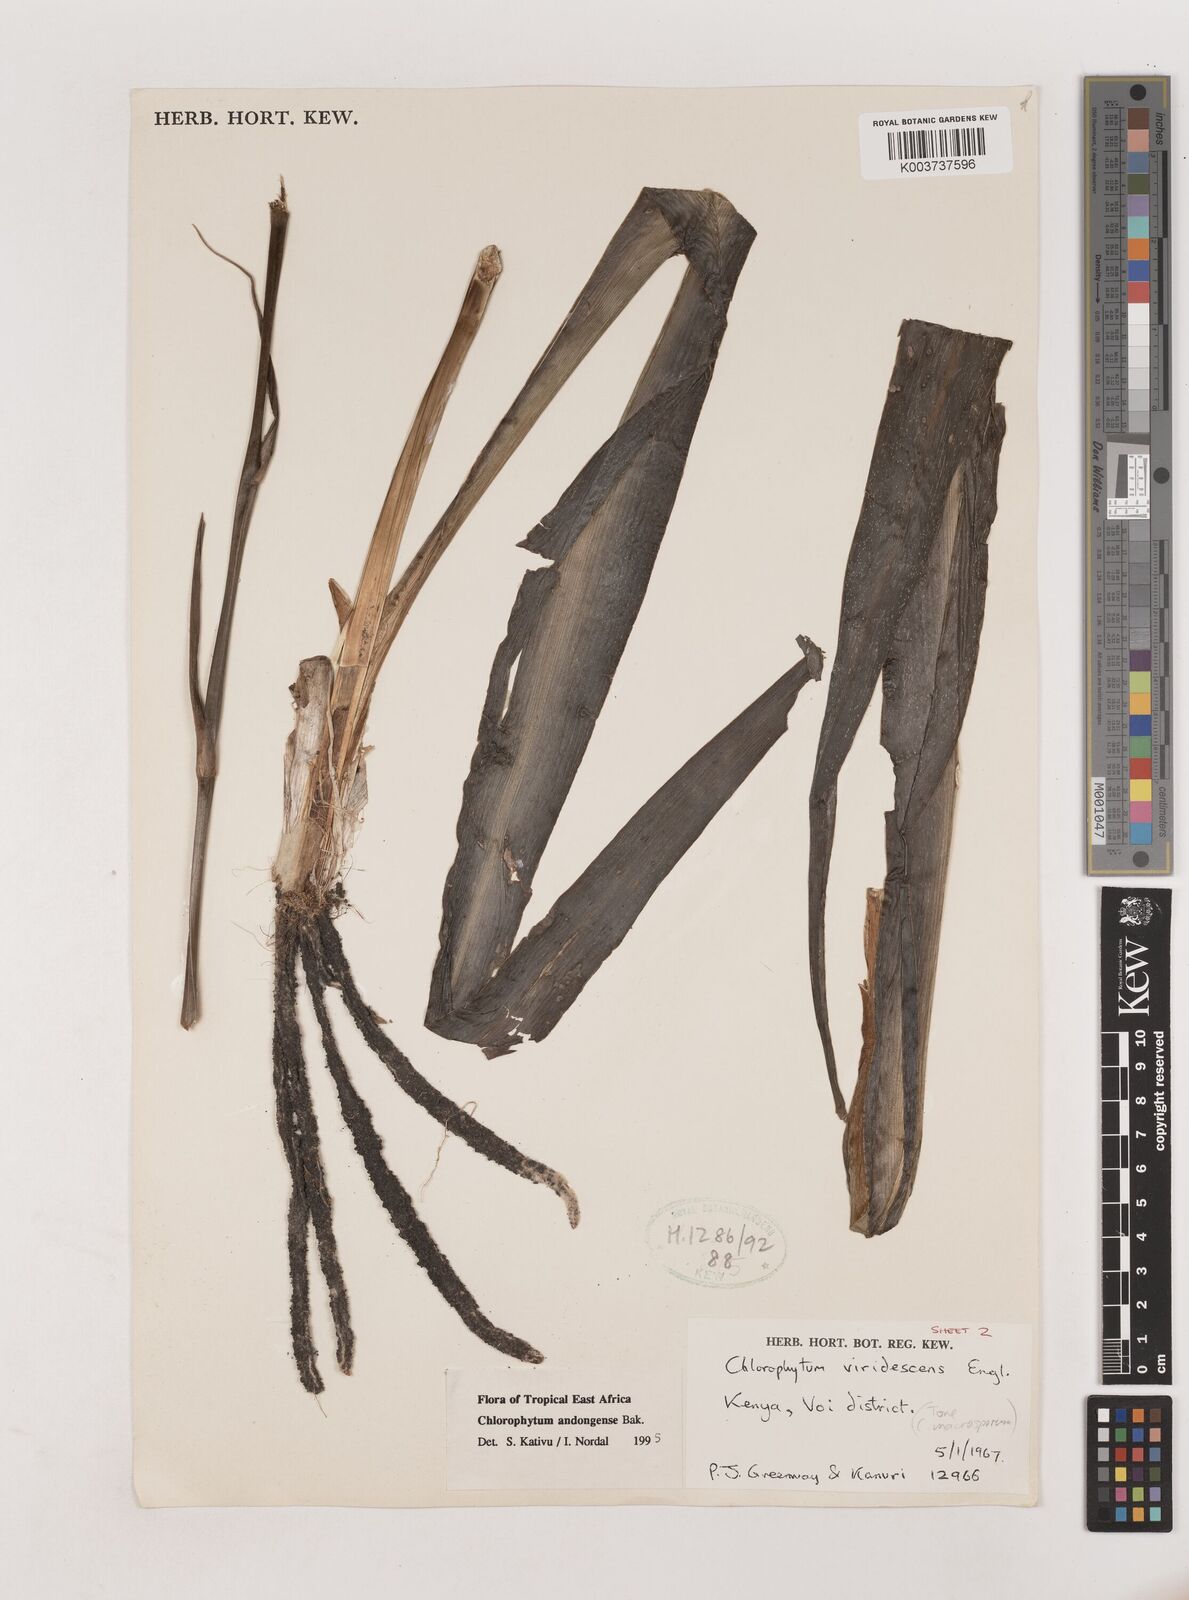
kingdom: Plantae
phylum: Tracheophyta
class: Liliopsida
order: Asparagales
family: Asparagaceae
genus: Chlorophytum
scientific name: Chlorophytum andongense
